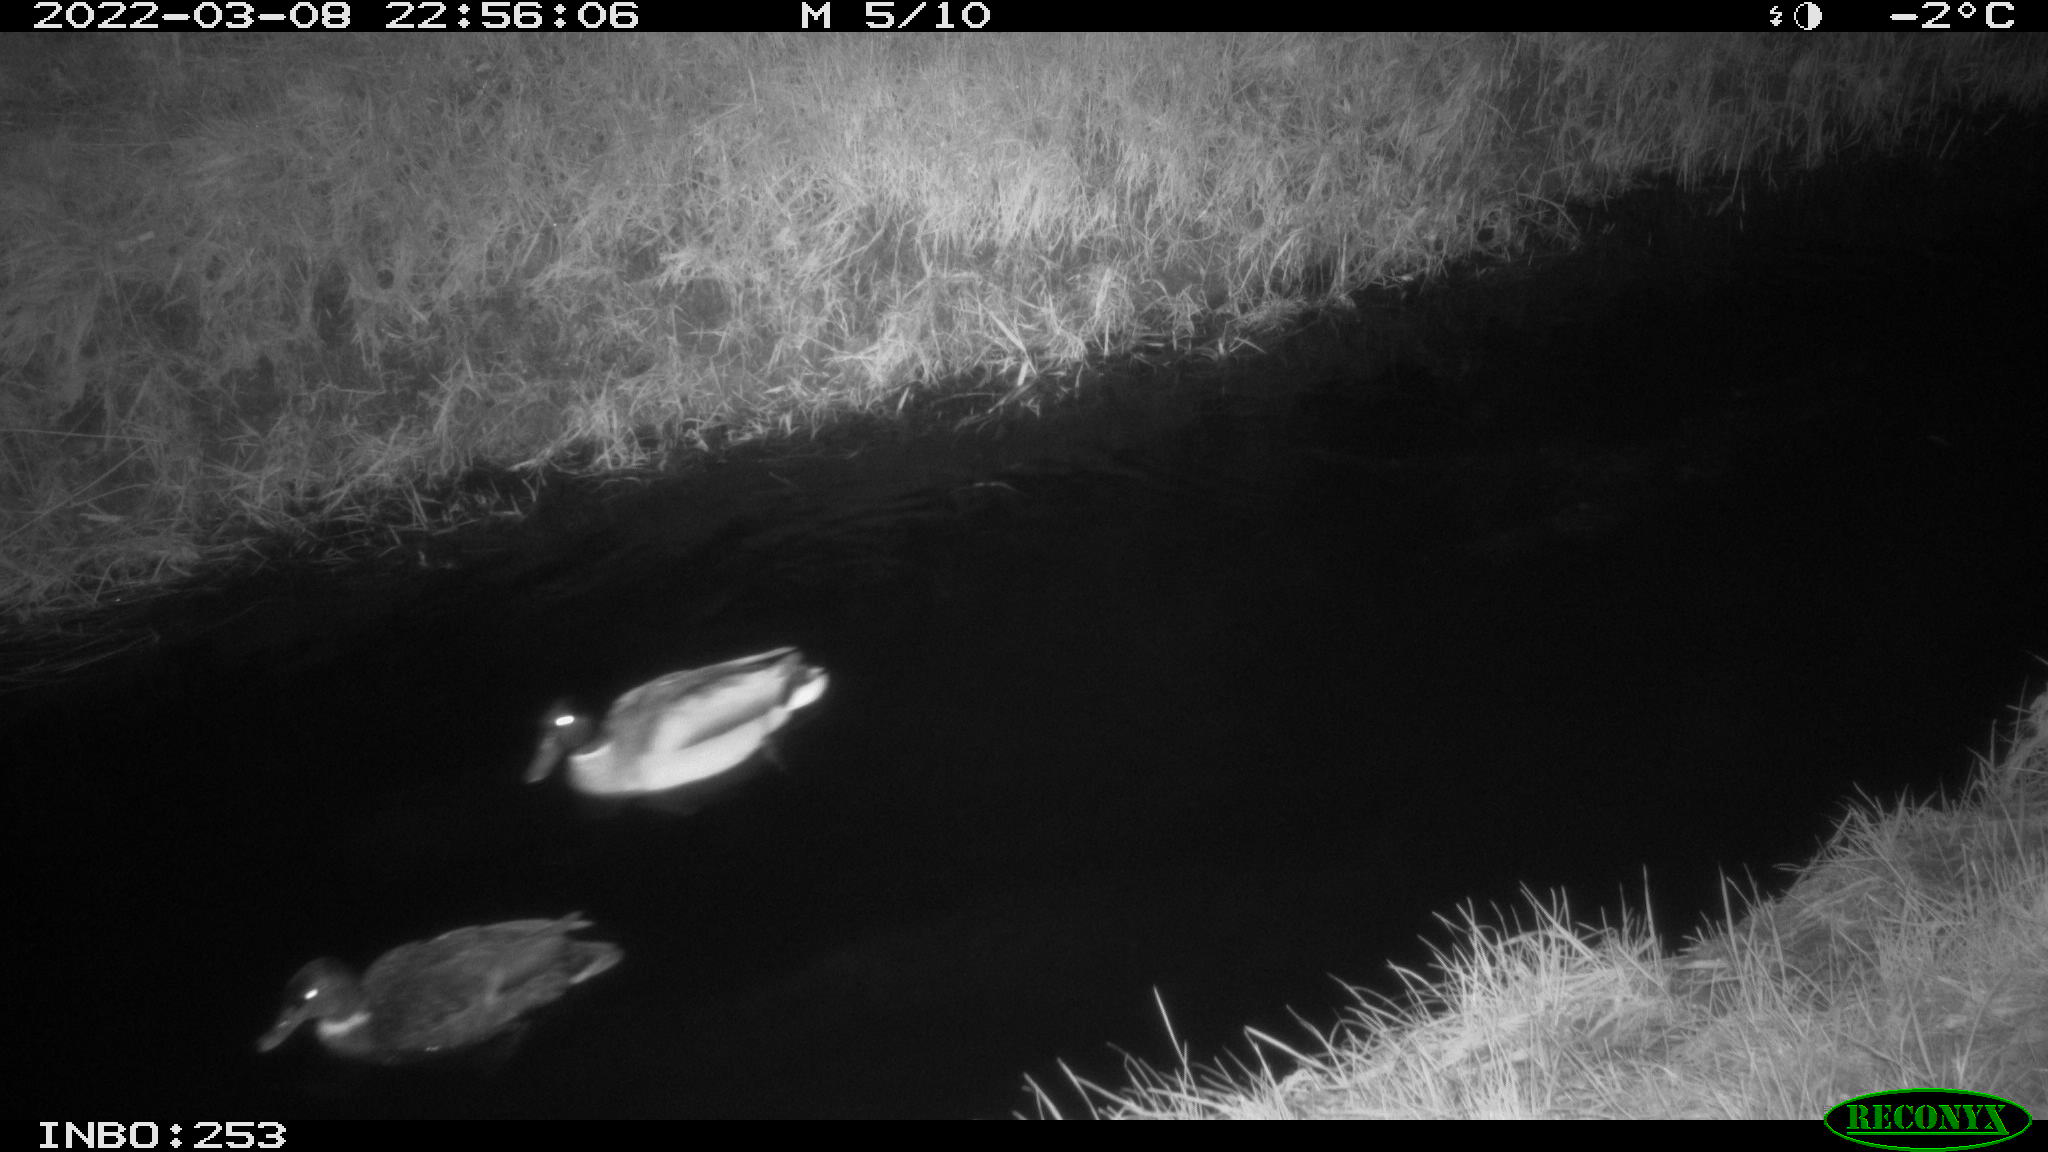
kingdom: Animalia
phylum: Chordata
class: Aves
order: Anseriformes
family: Anatidae
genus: Anas
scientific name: Anas platyrhynchos
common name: Mallard
